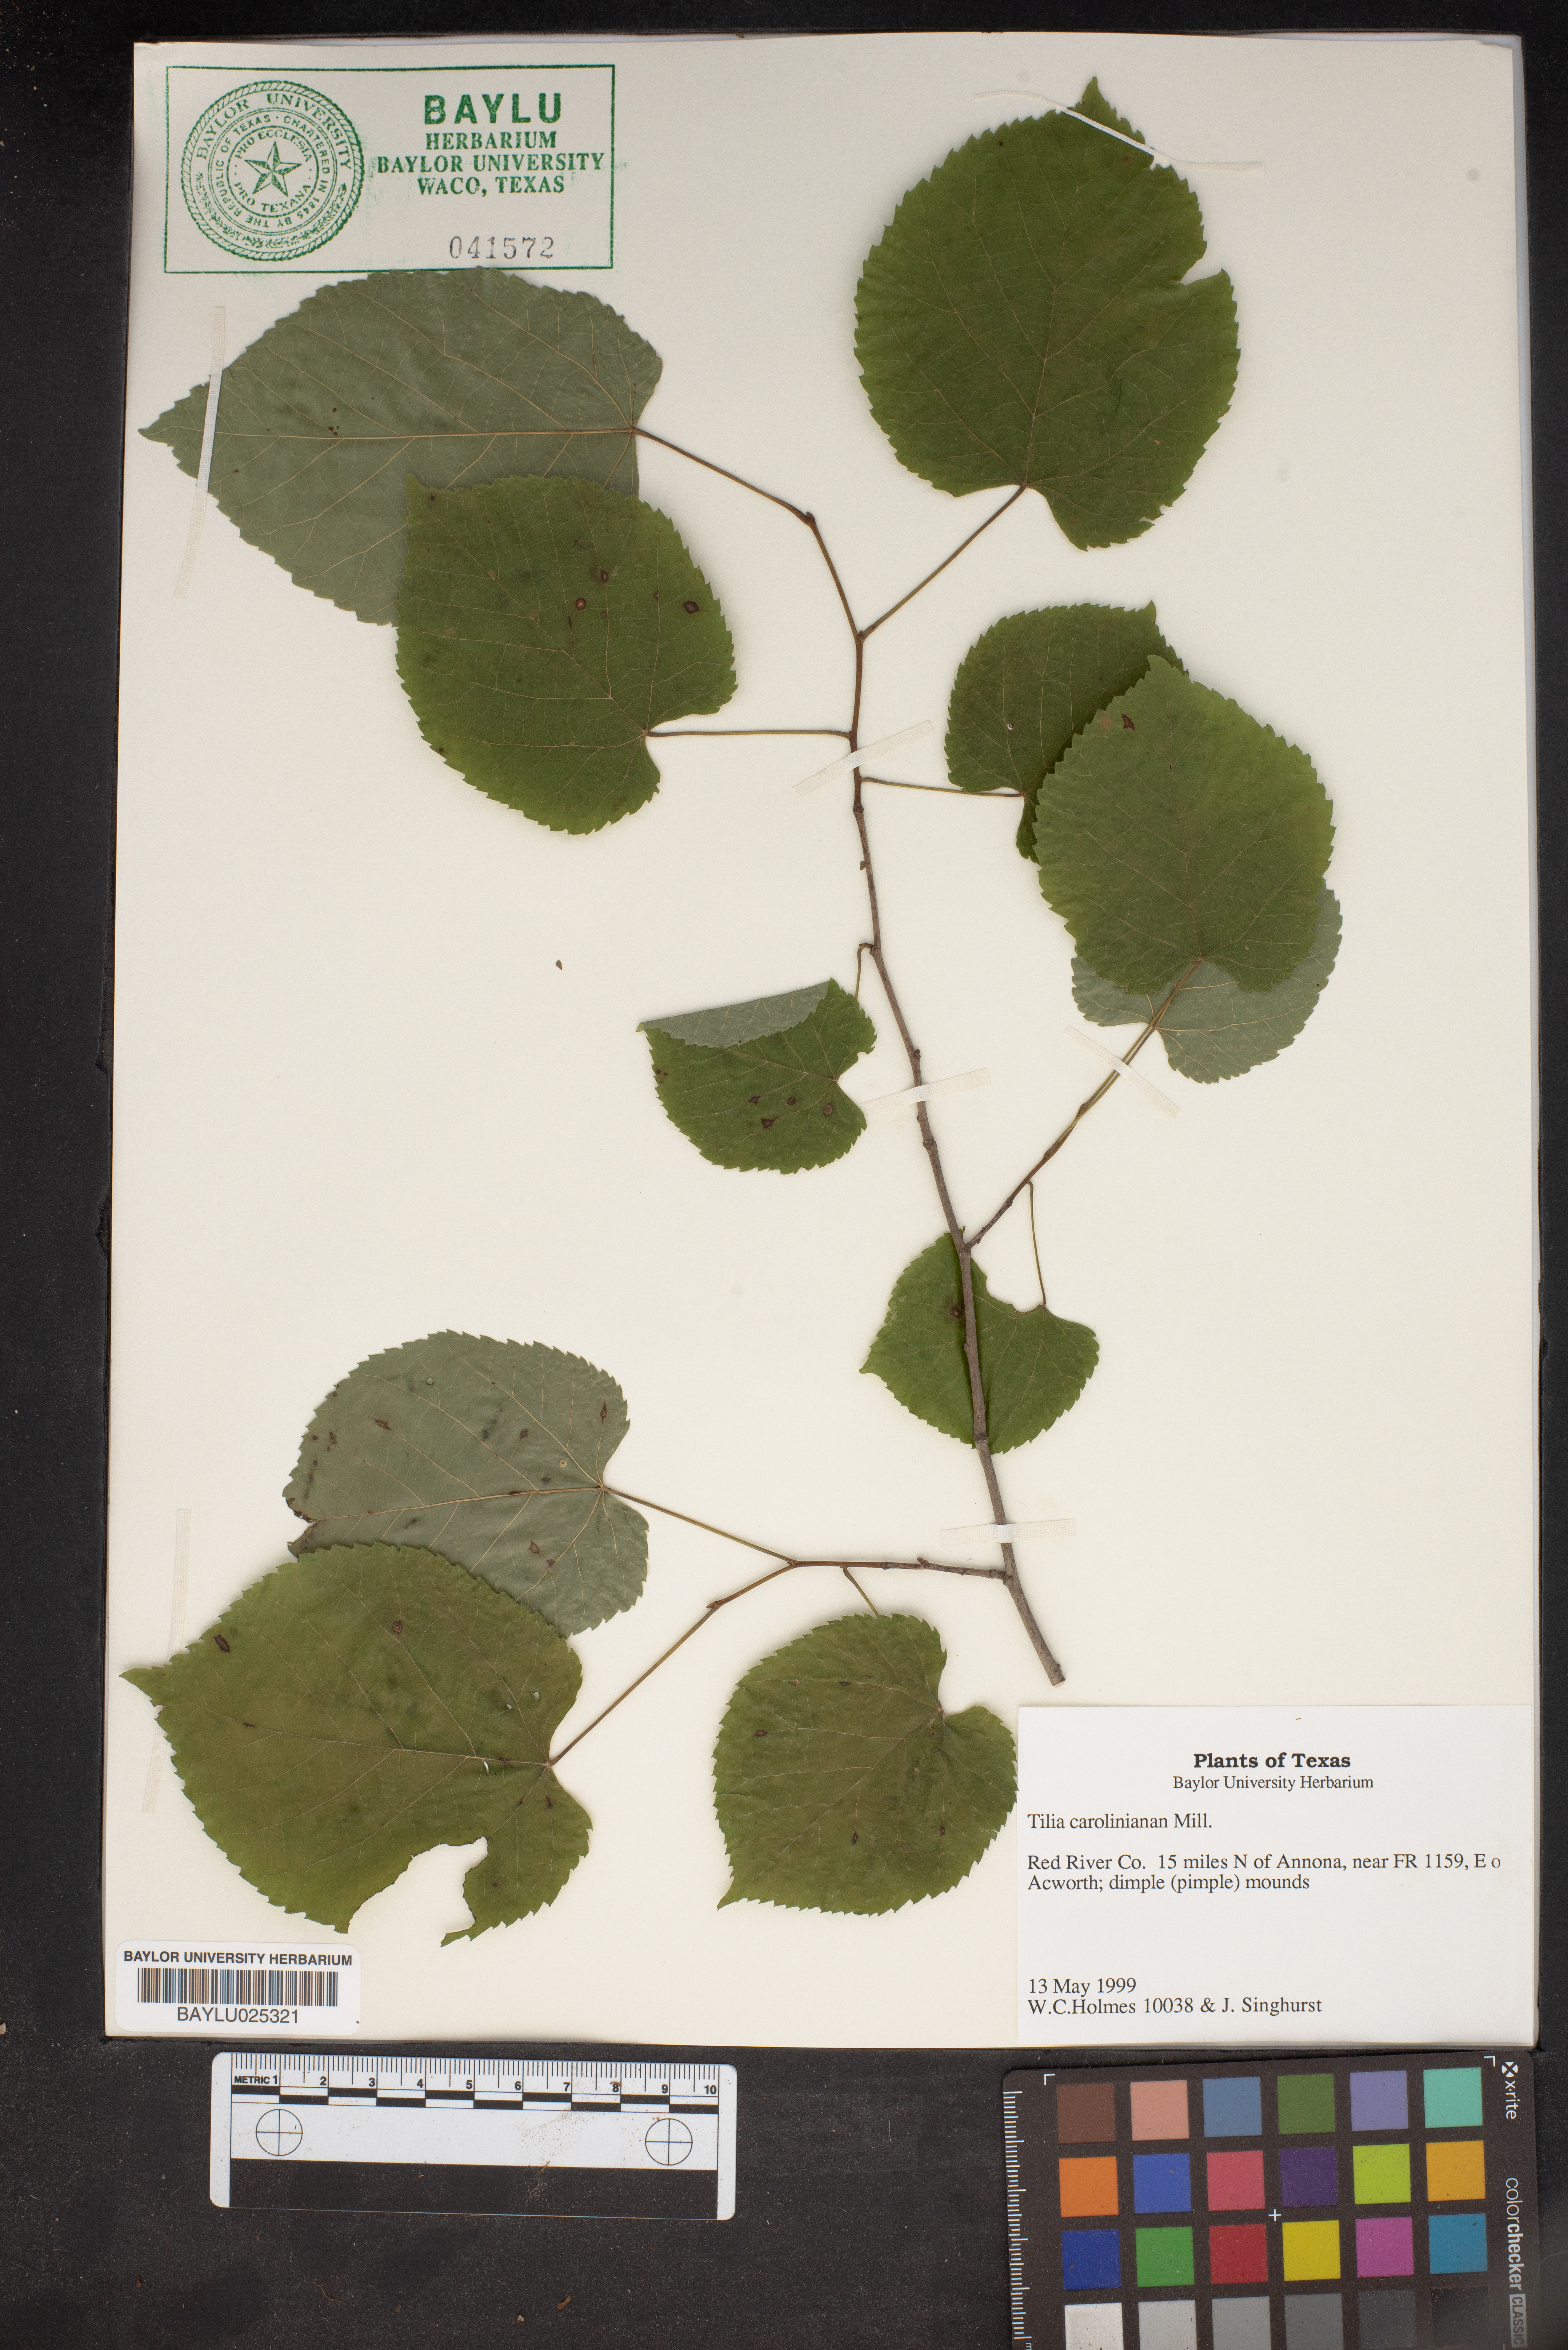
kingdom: Plantae
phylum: Tracheophyta
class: Magnoliopsida
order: Malvales
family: Malvaceae
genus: Tilia
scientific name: Tilia americana
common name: Basswood
